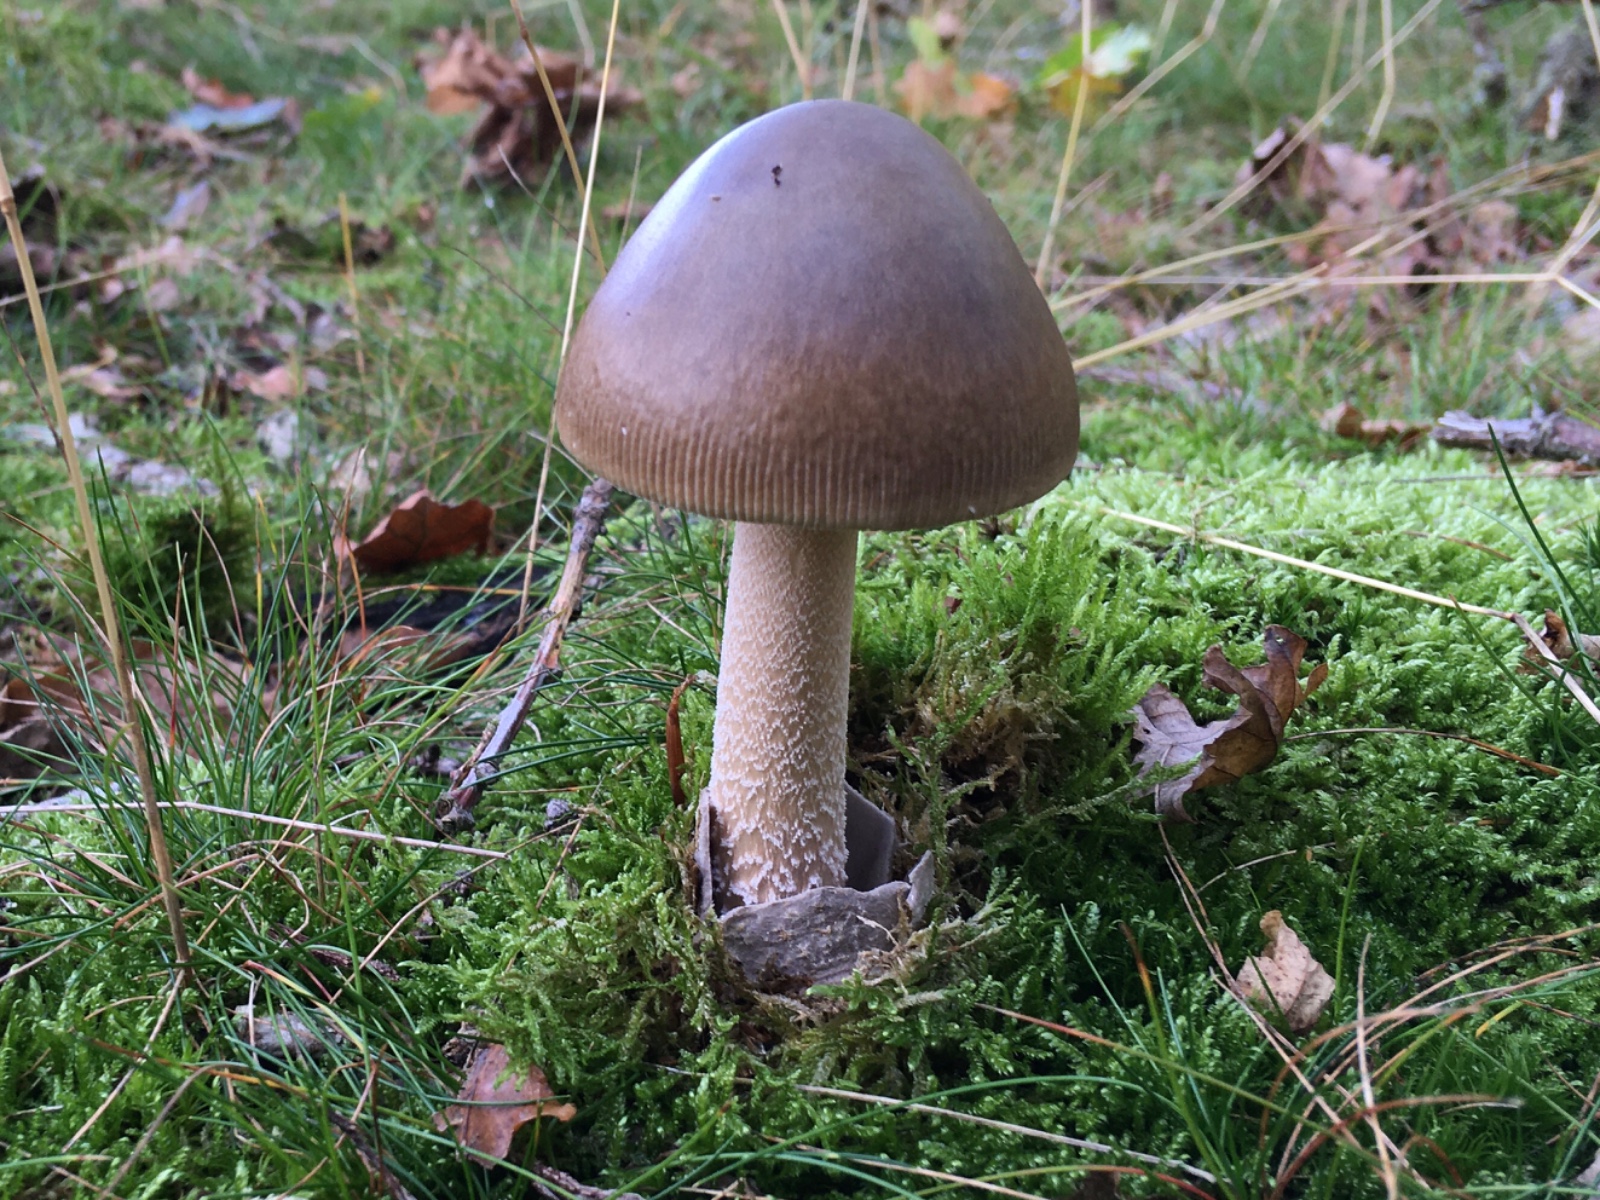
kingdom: Fungi
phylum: Basidiomycota
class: Agaricomycetes
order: Agaricales
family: Amanitaceae
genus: Amanita
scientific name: Amanita submembranacea
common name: gråspættet kam-fluesvamp
